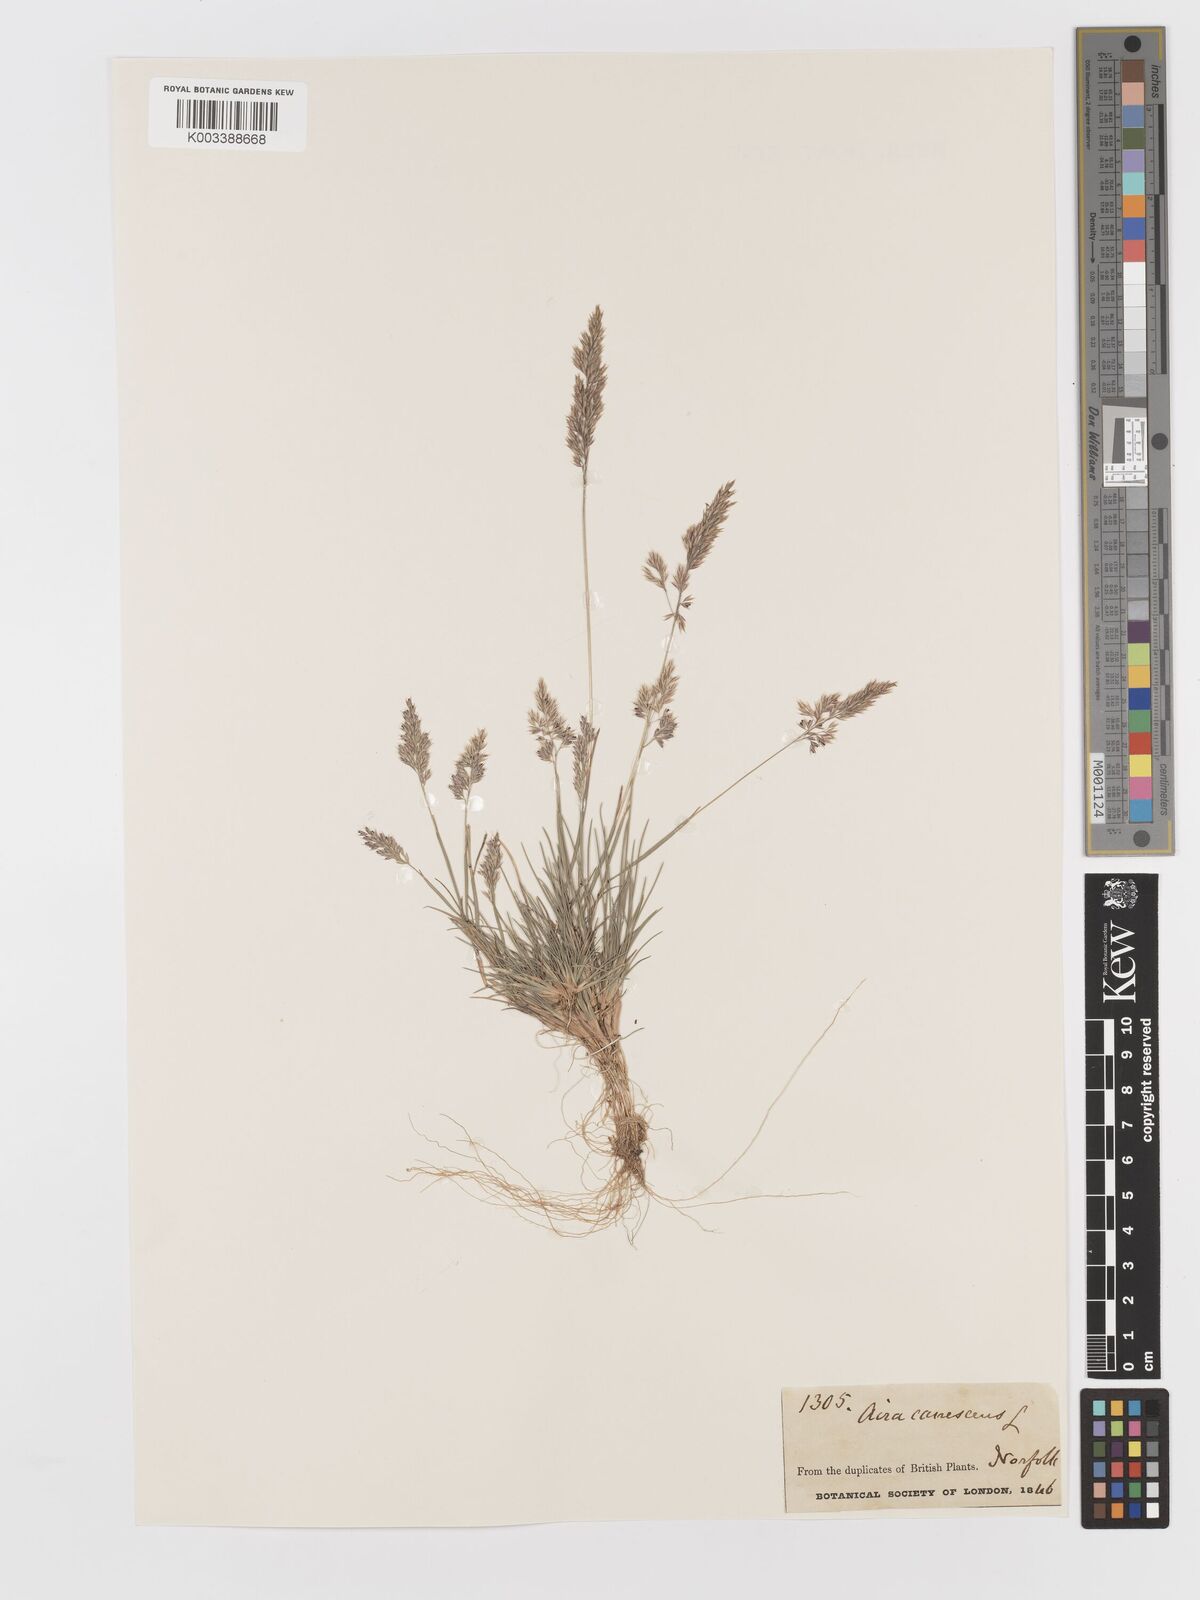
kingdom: Plantae
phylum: Tracheophyta
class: Liliopsida
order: Poales
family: Poaceae
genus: Corynephorus
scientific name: Corynephorus canescens
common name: Grey hair-grass
